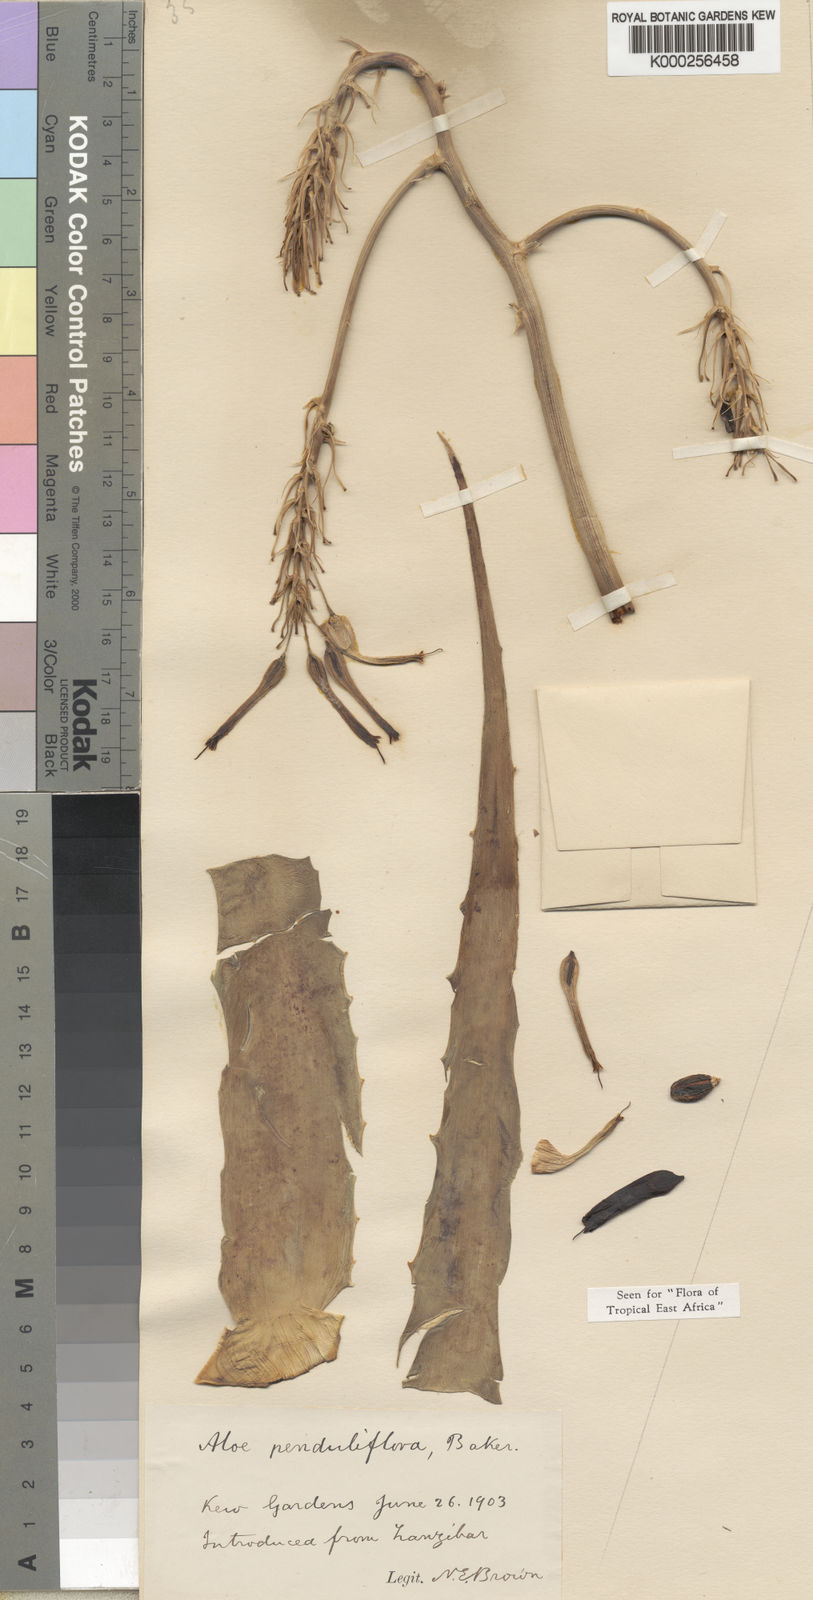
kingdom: Plantae
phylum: Tracheophyta
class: Liliopsida
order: Asparagales
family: Asphodelaceae
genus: Aloe
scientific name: Aloe penduliflora
